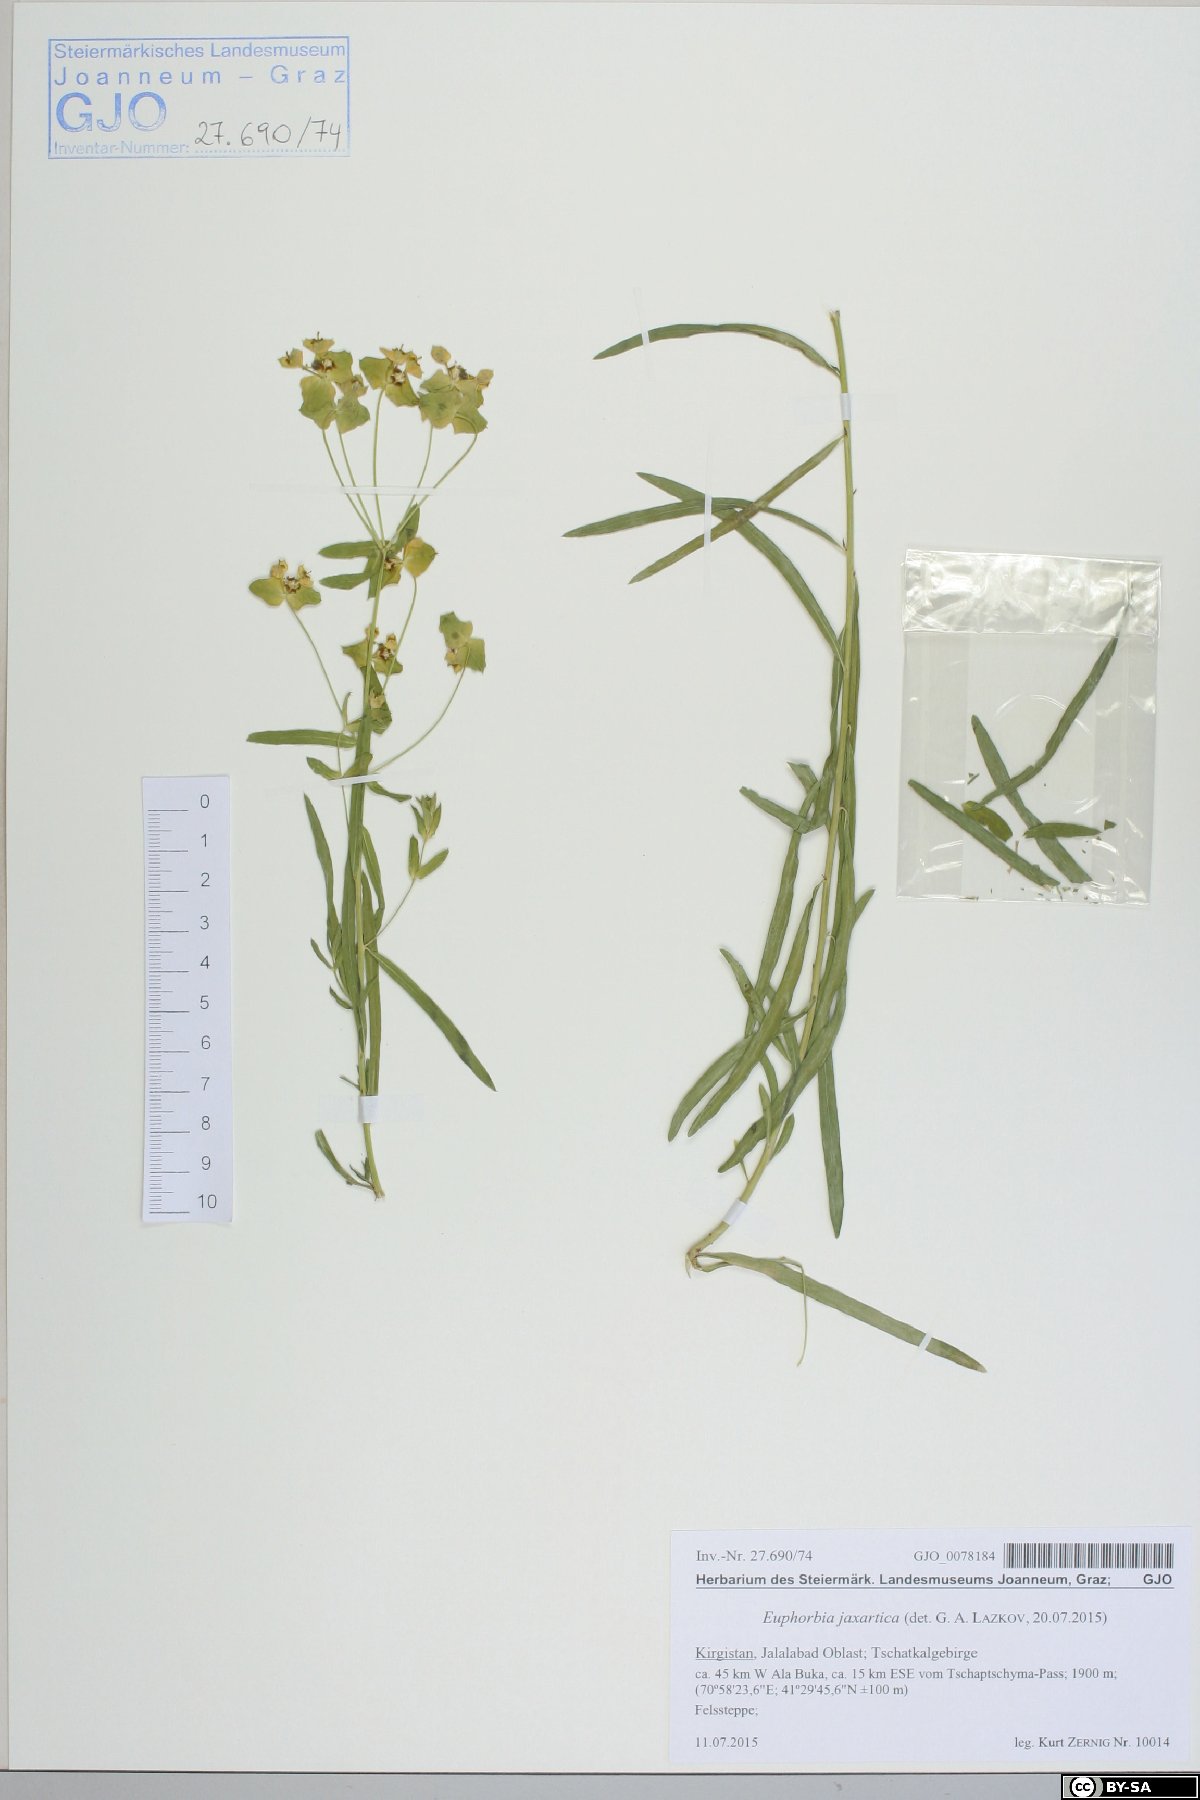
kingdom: Plantae
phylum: Tracheophyta
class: Magnoliopsida
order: Malpighiales
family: Euphorbiaceae
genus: Euphorbia
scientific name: Euphorbia esula
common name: Leafy spurge
